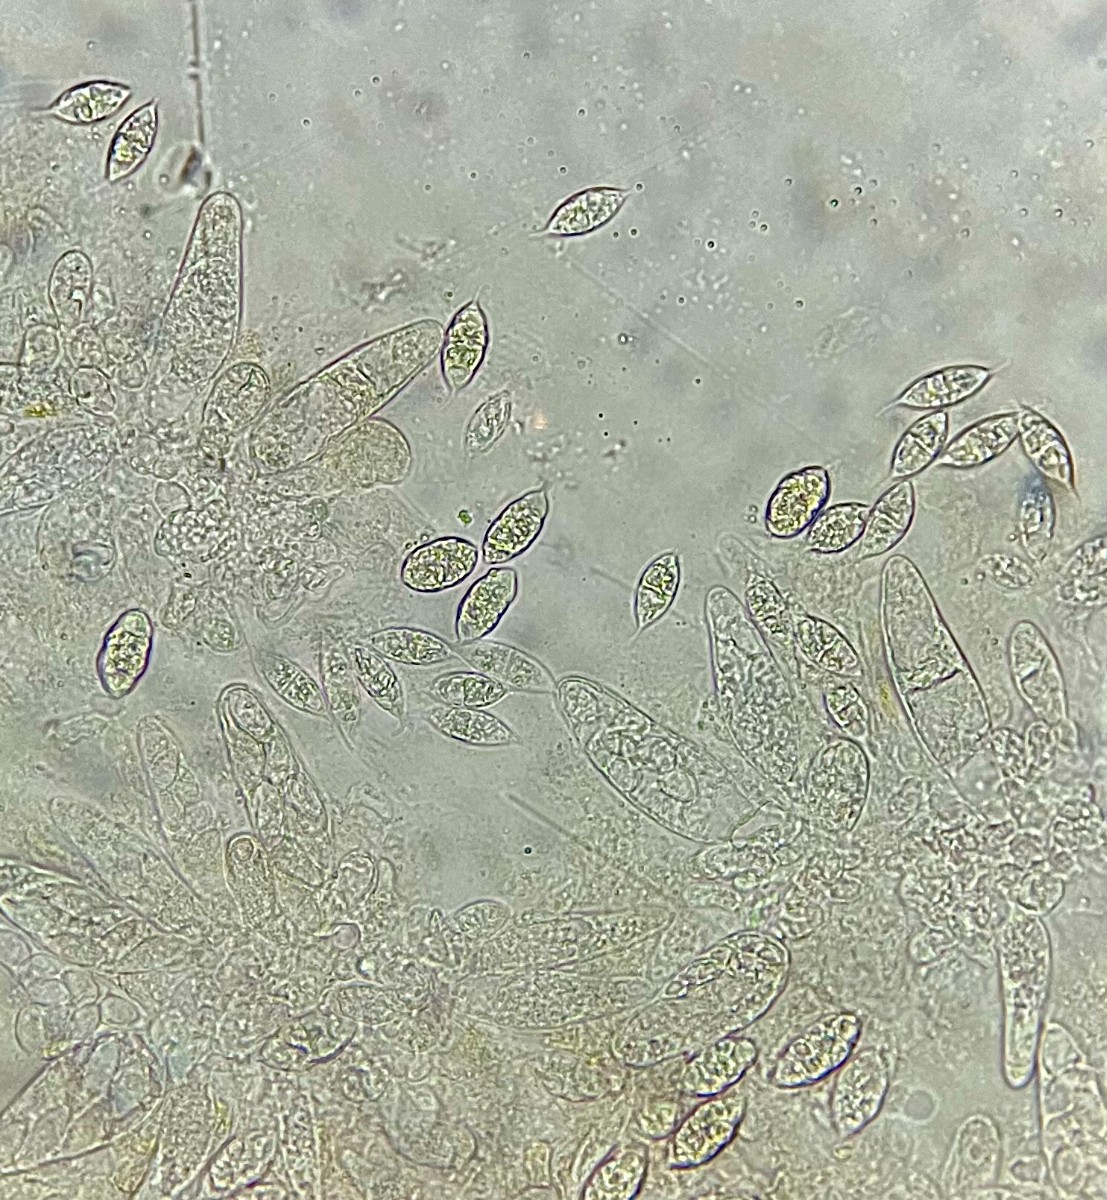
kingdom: Fungi
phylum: Ascomycota
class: Sordariomycetes
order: Hypocreales
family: Bionectriaceae
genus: Paranectria
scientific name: Paranectria oropensis
